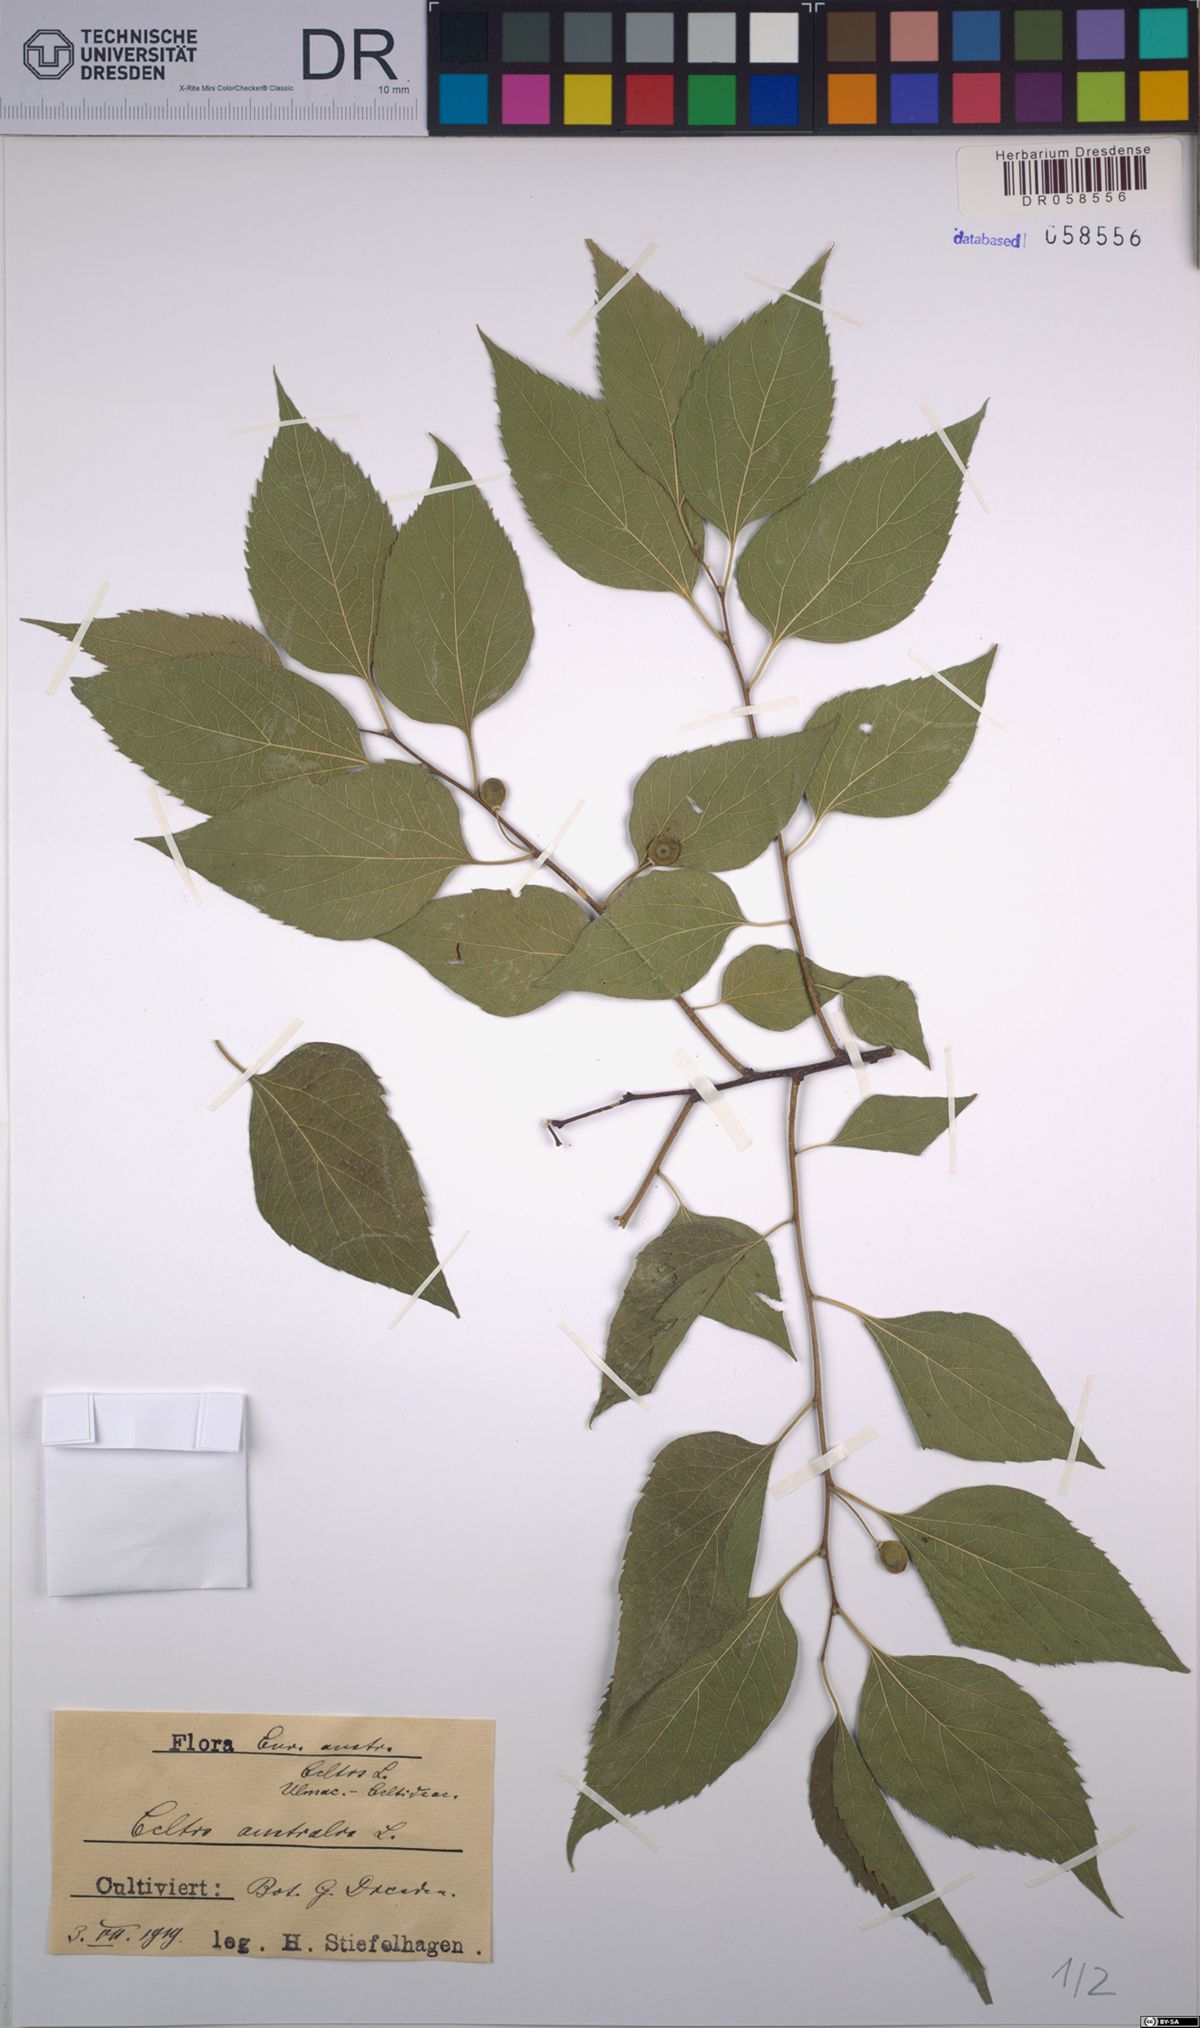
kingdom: Plantae
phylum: Tracheophyta
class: Magnoliopsida
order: Rosales
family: Cannabaceae
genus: Celtis
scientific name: Celtis australis
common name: European hackberry
